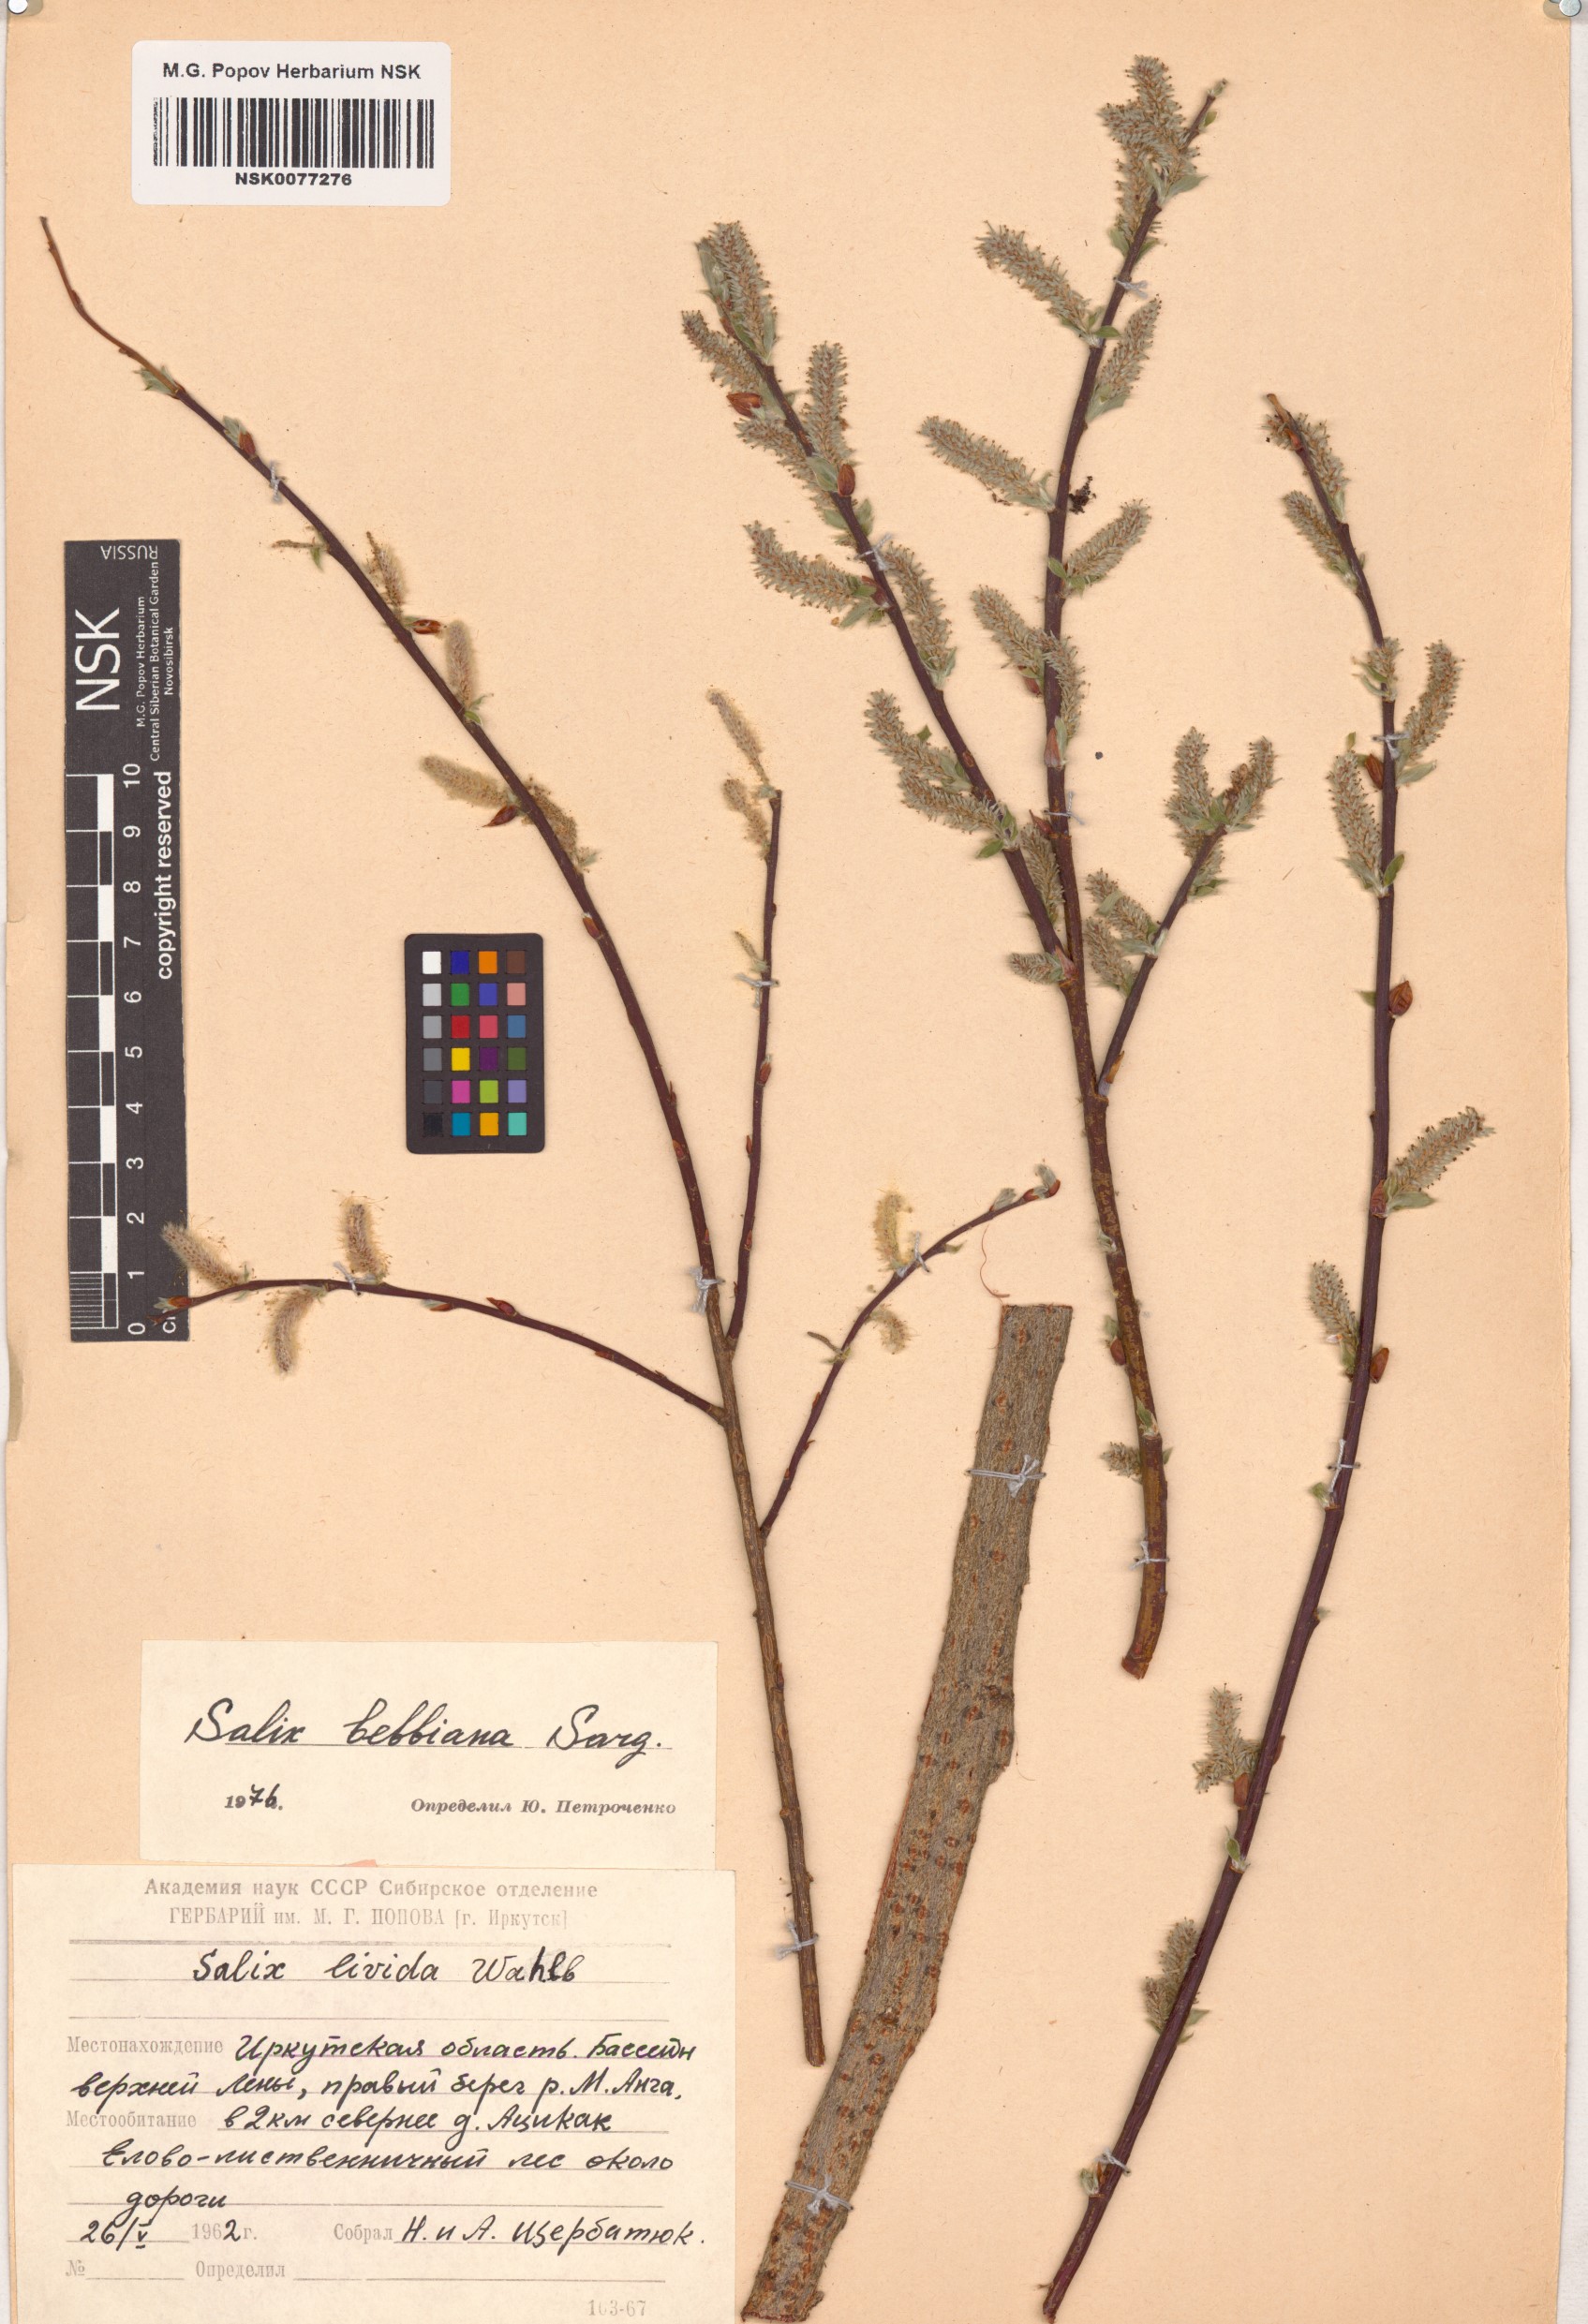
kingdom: Plantae
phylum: Tracheophyta
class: Magnoliopsida
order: Malpighiales
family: Salicaceae
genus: Salix
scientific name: Salix bebbiana
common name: Bebb's willow
